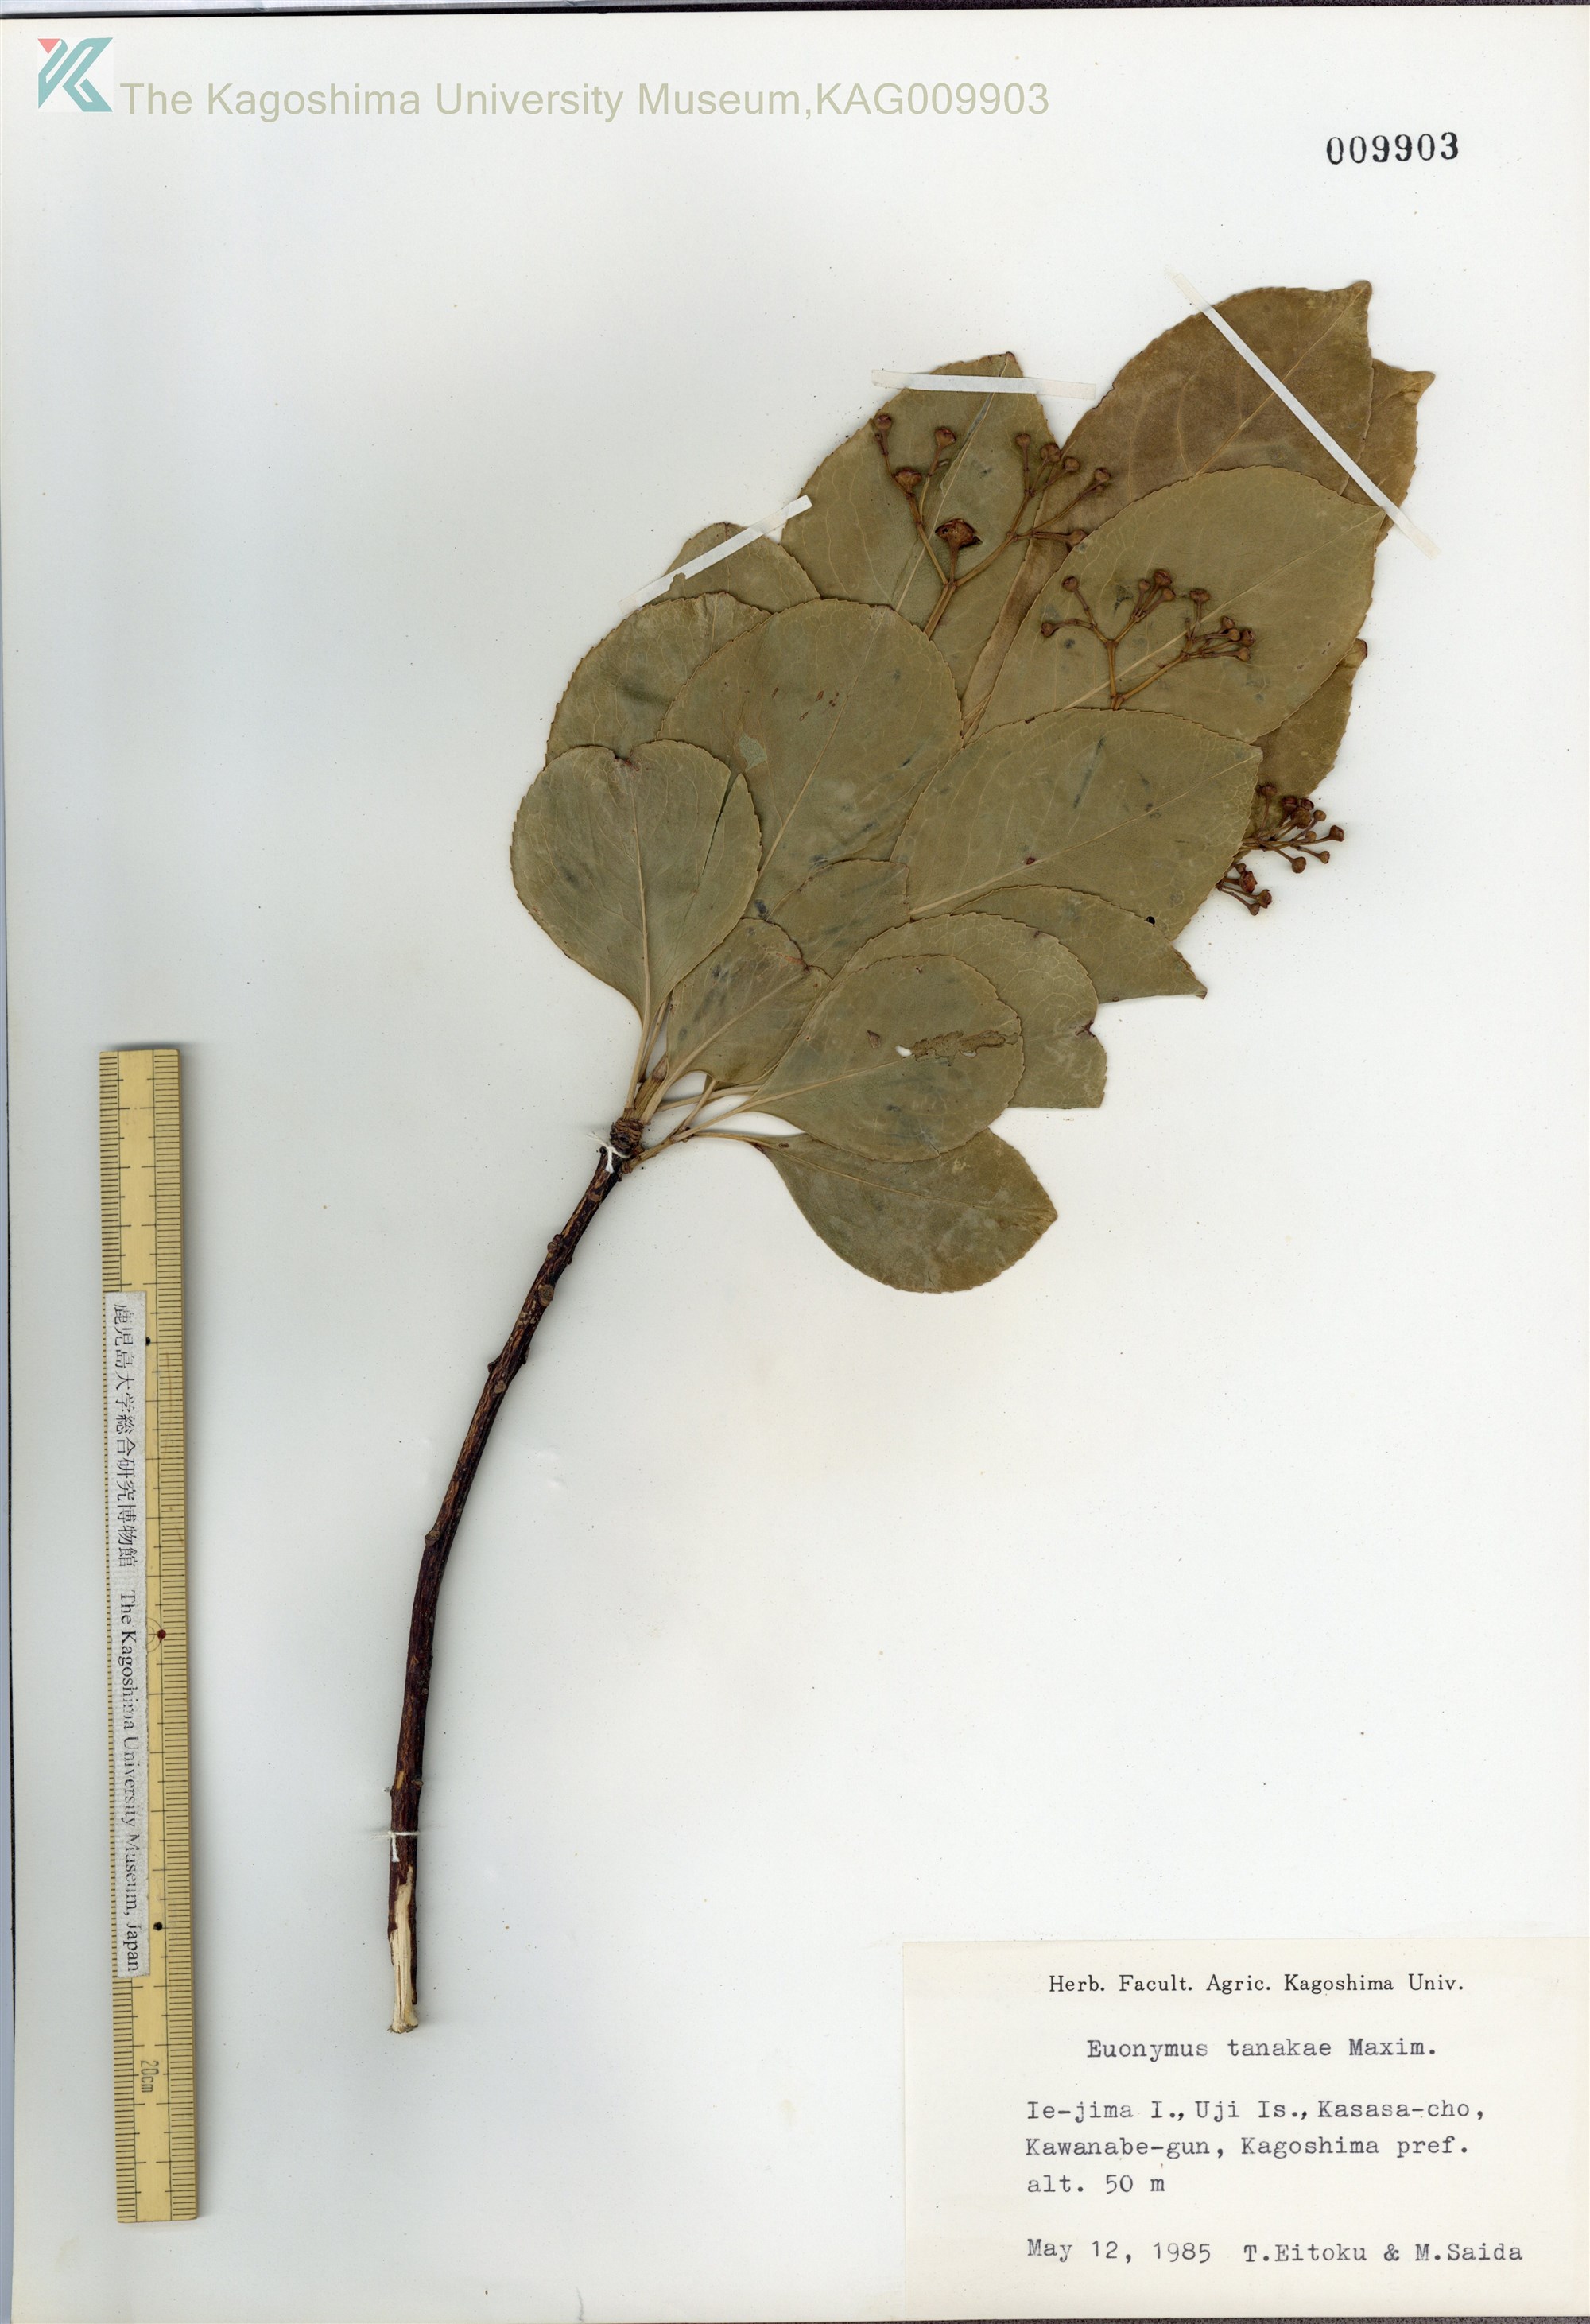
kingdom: Plantae
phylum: Tracheophyta
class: Magnoliopsida
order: Celastrales
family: Celastraceae
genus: Euonymus
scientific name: Euonymus carnosus
